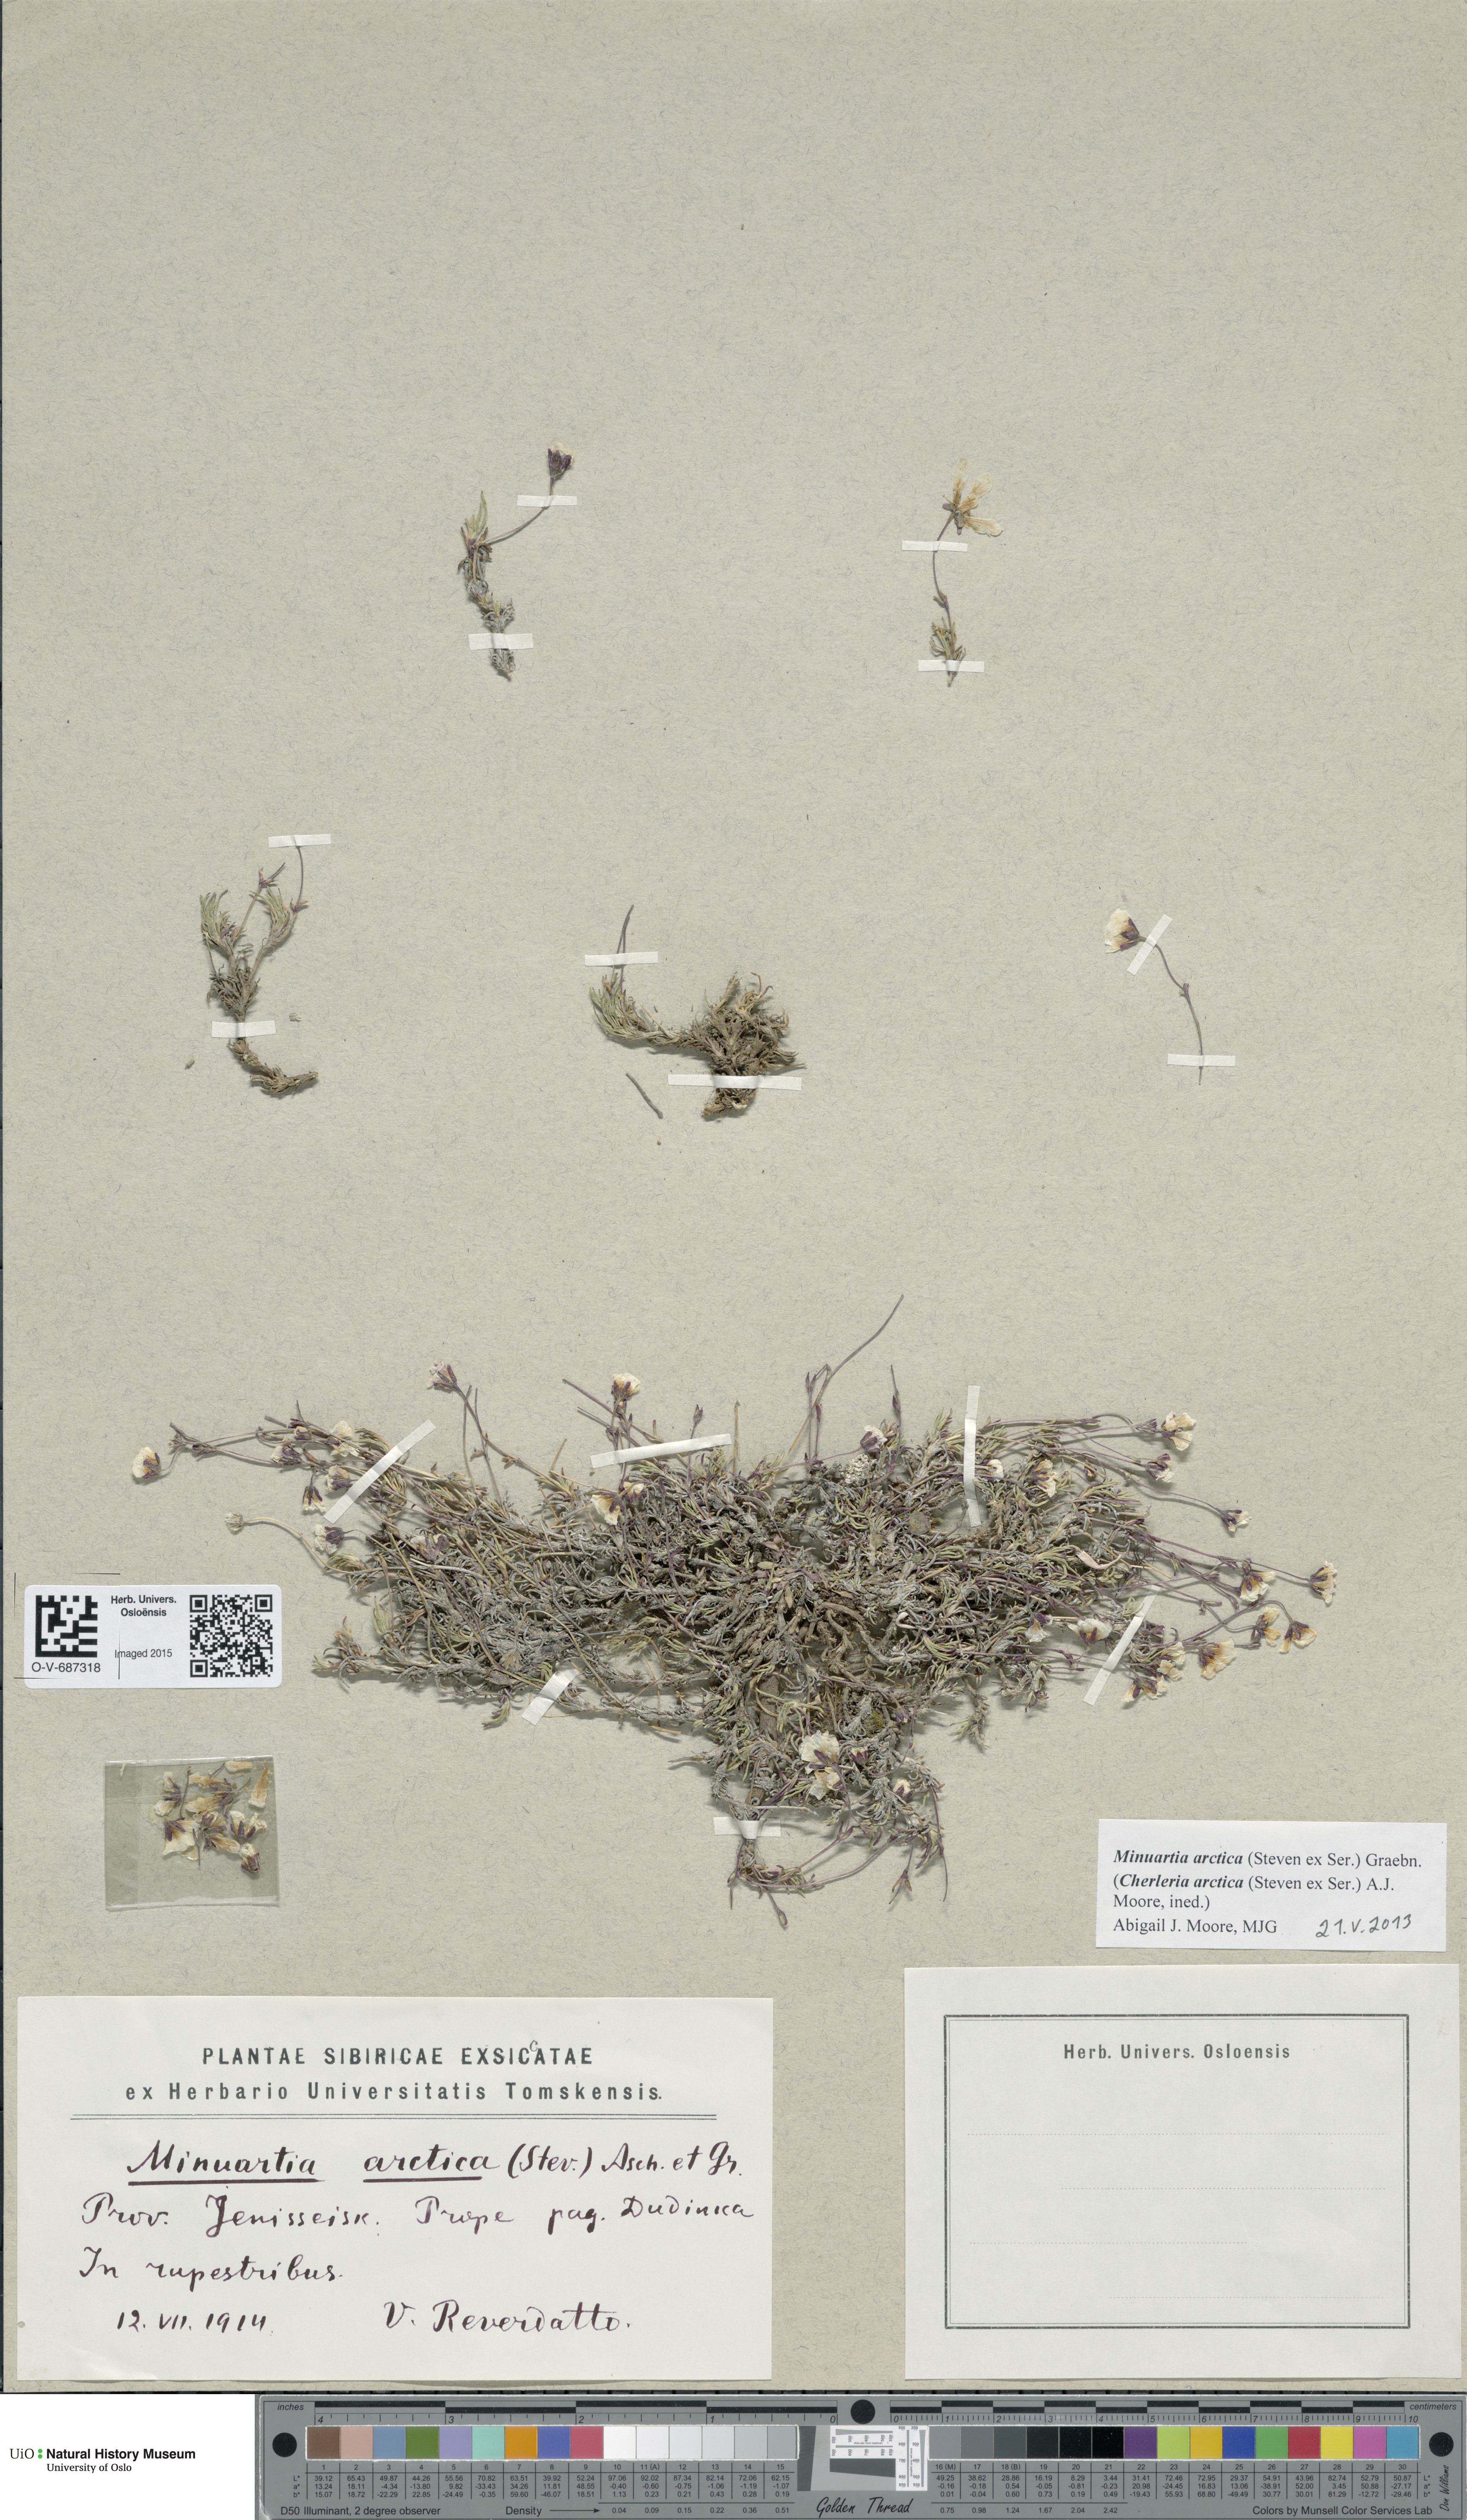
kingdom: Plantae
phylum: Tracheophyta
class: Magnoliopsida
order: Caryophyllales
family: Caryophyllaceae
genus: Cherleria
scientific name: Cherleria arctica
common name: Arctic sandwort
